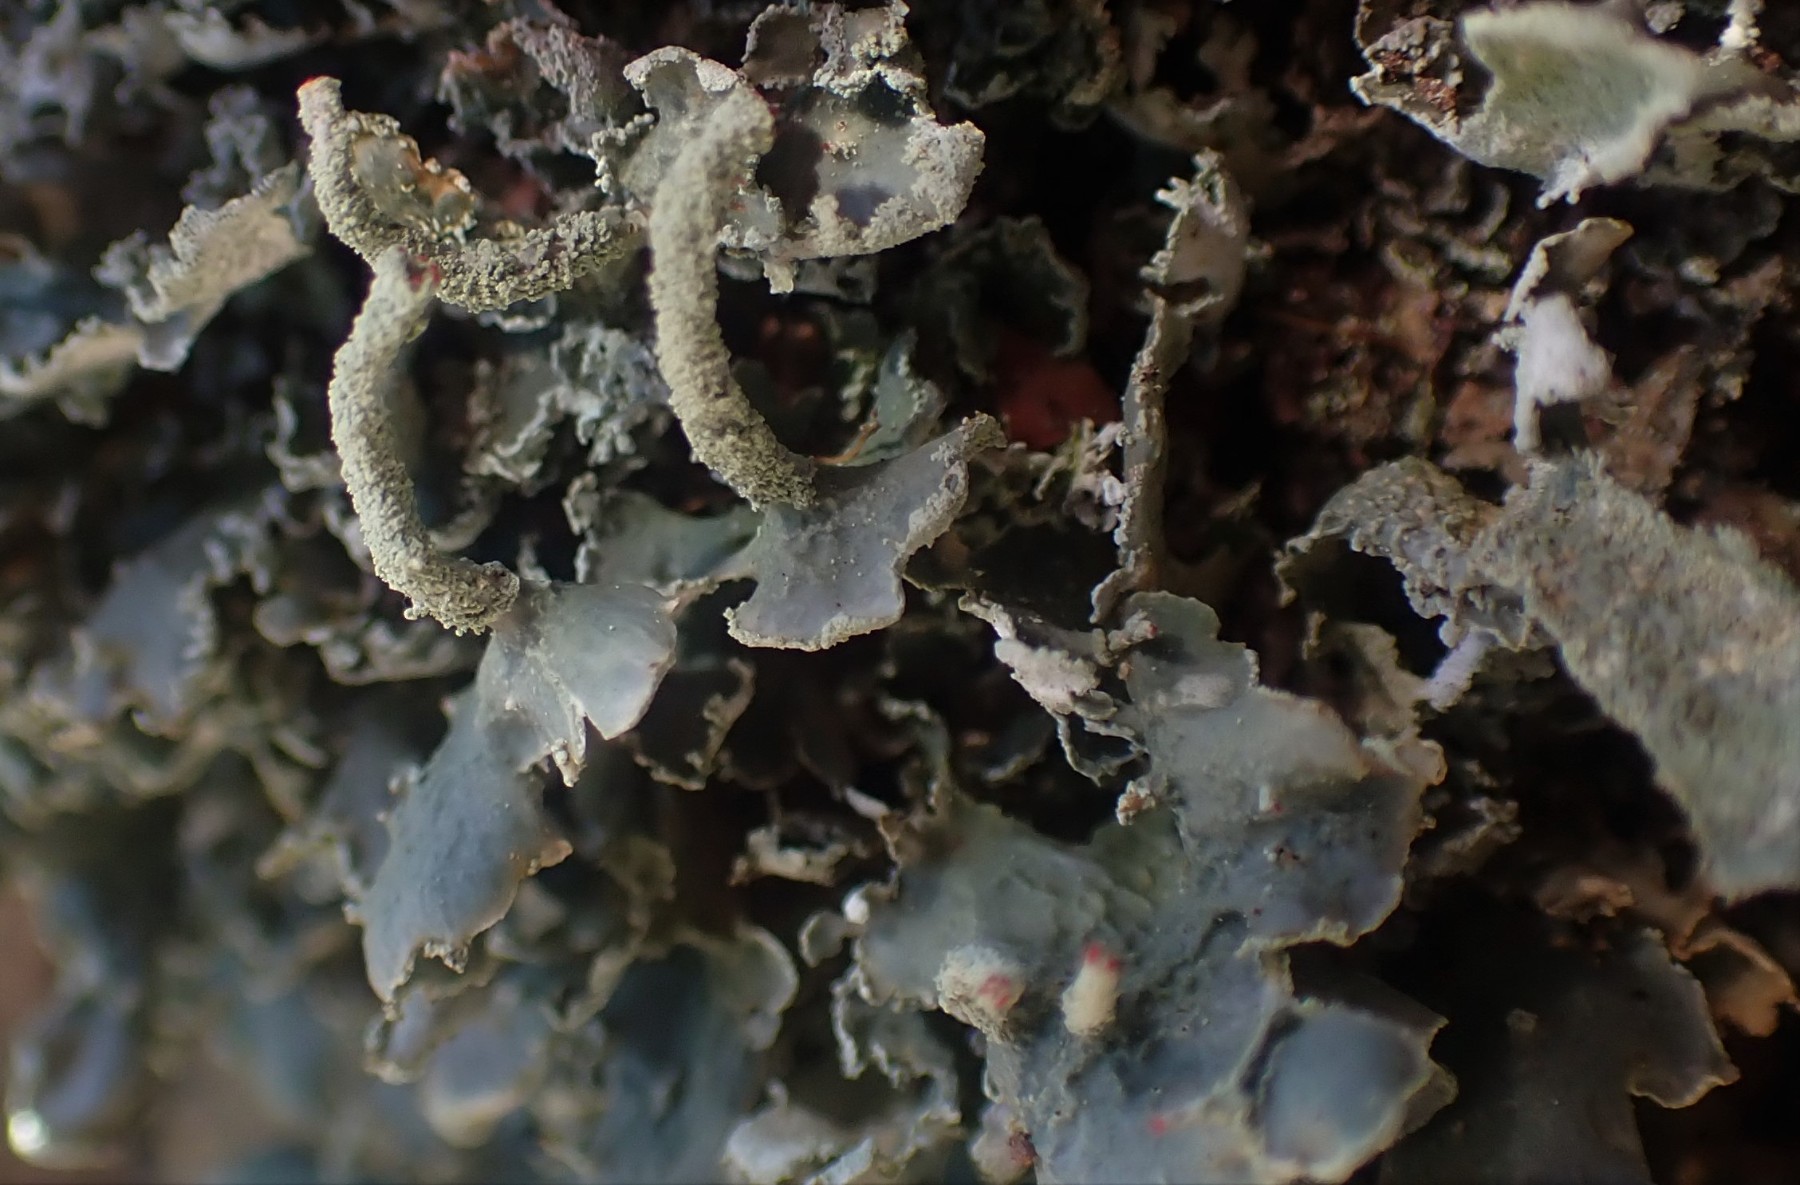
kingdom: Fungi
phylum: Ascomycota
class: Lecanoromycetes
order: Lecanorales
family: Cladoniaceae
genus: Cladonia
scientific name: Cladonia digitata
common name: finger-bægerlav
